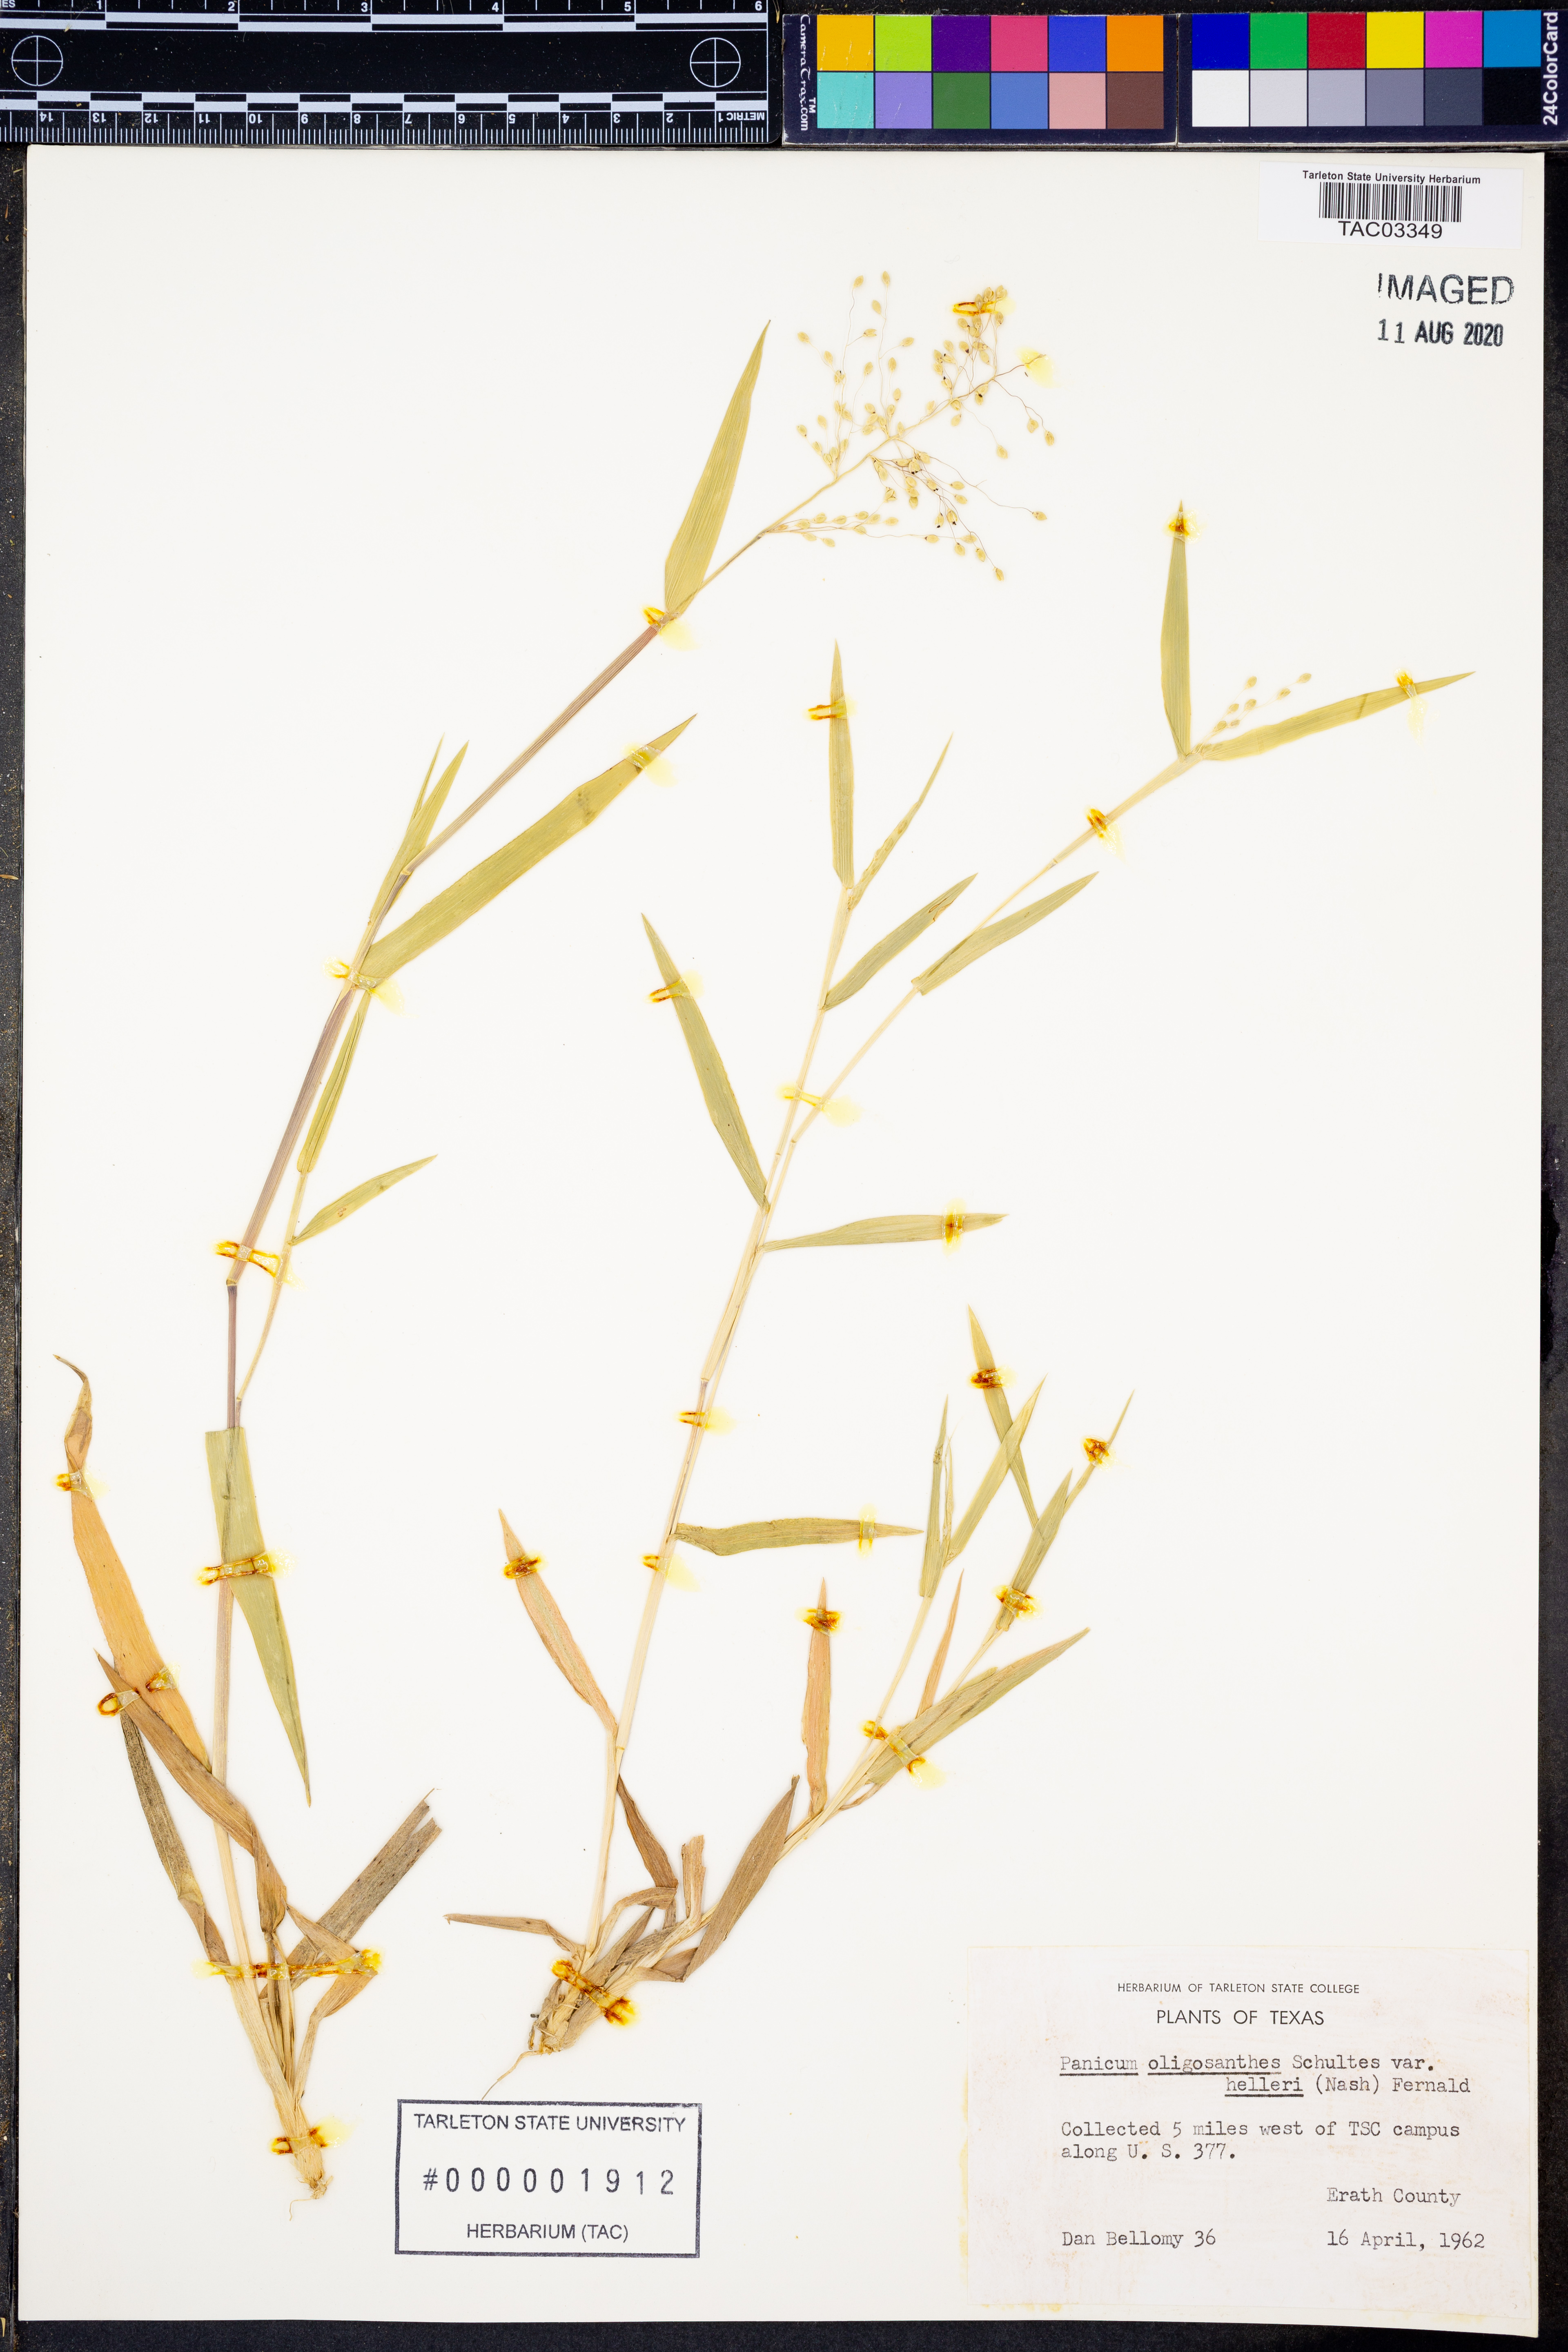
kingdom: Plantae
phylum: Tracheophyta
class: Liliopsida
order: Poales
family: Poaceae
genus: Dichanthelium
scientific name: Dichanthelium oligosanthes
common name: Few-anther obscuregrass
